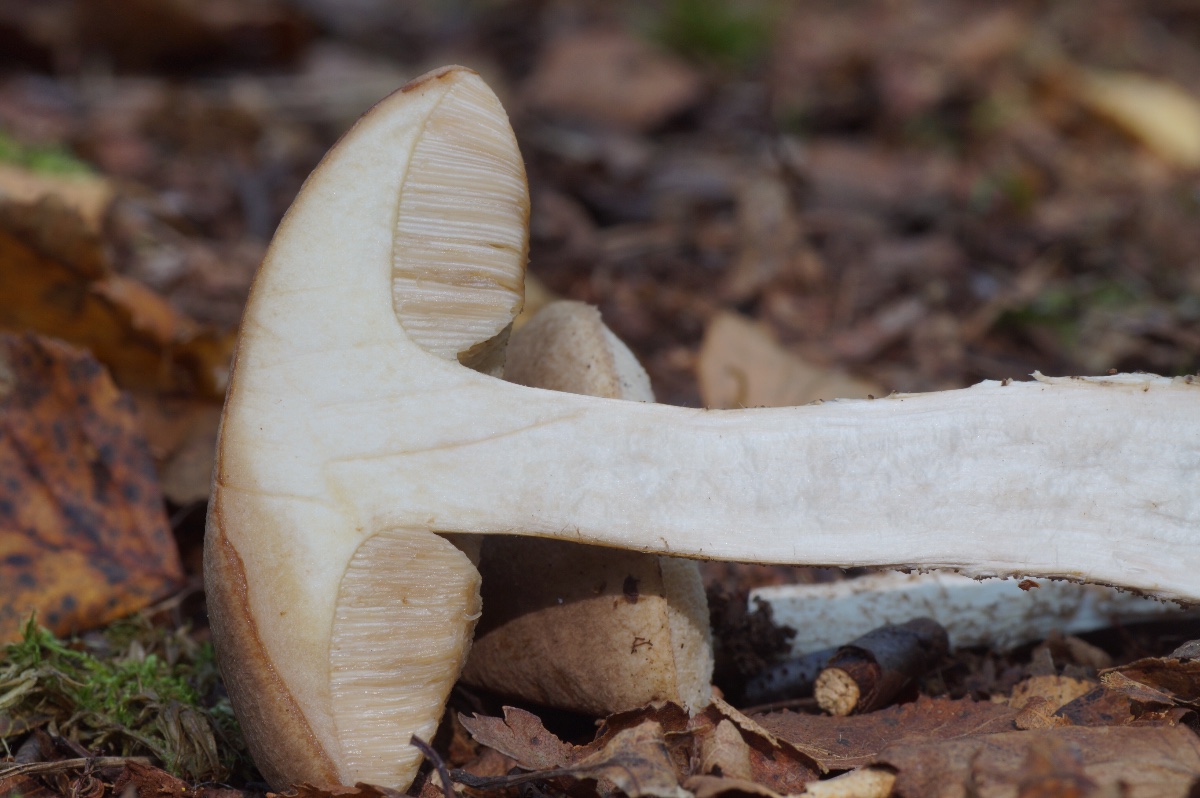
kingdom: Fungi
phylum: Basidiomycota
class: Agaricomycetes
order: Boletales
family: Boletaceae
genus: Leccinum
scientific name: Leccinum scabrum
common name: brun skælrørhat
